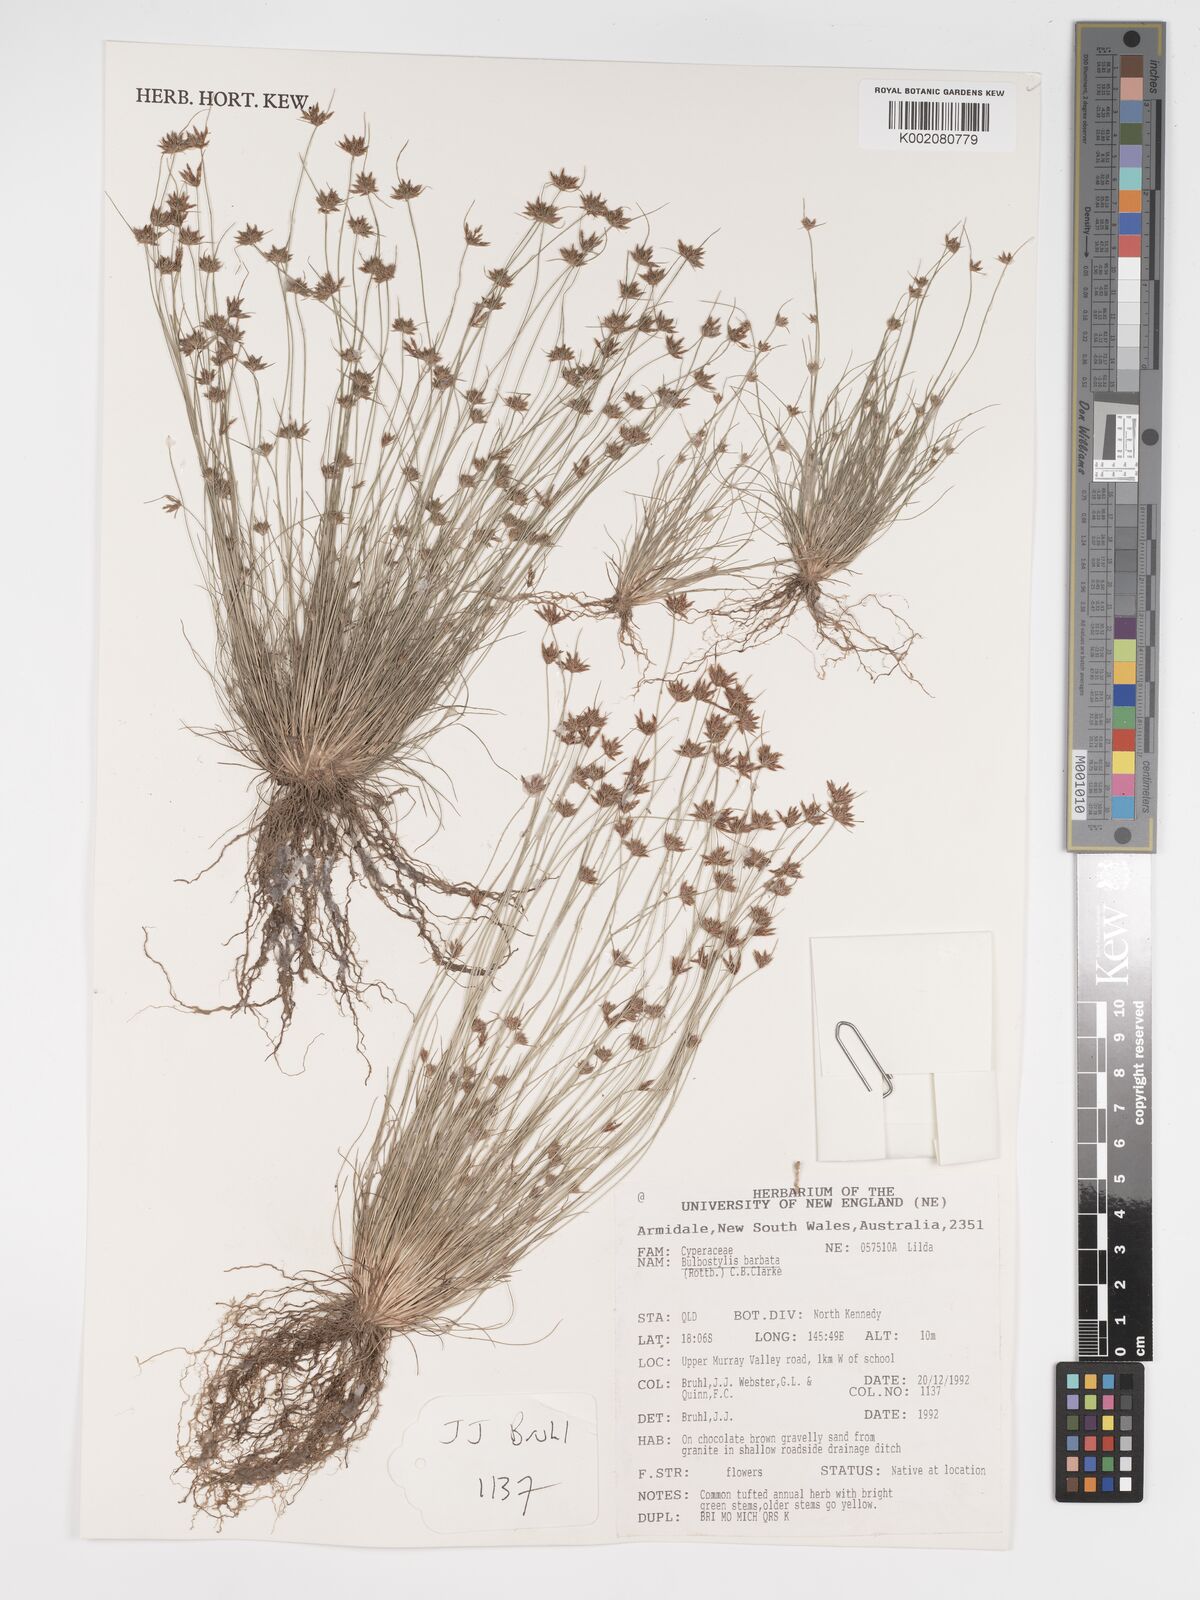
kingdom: Plantae
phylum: Tracheophyta
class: Liliopsida
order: Poales
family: Cyperaceae
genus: Bulbostylis
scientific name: Bulbostylis barbata
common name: Watergrass
